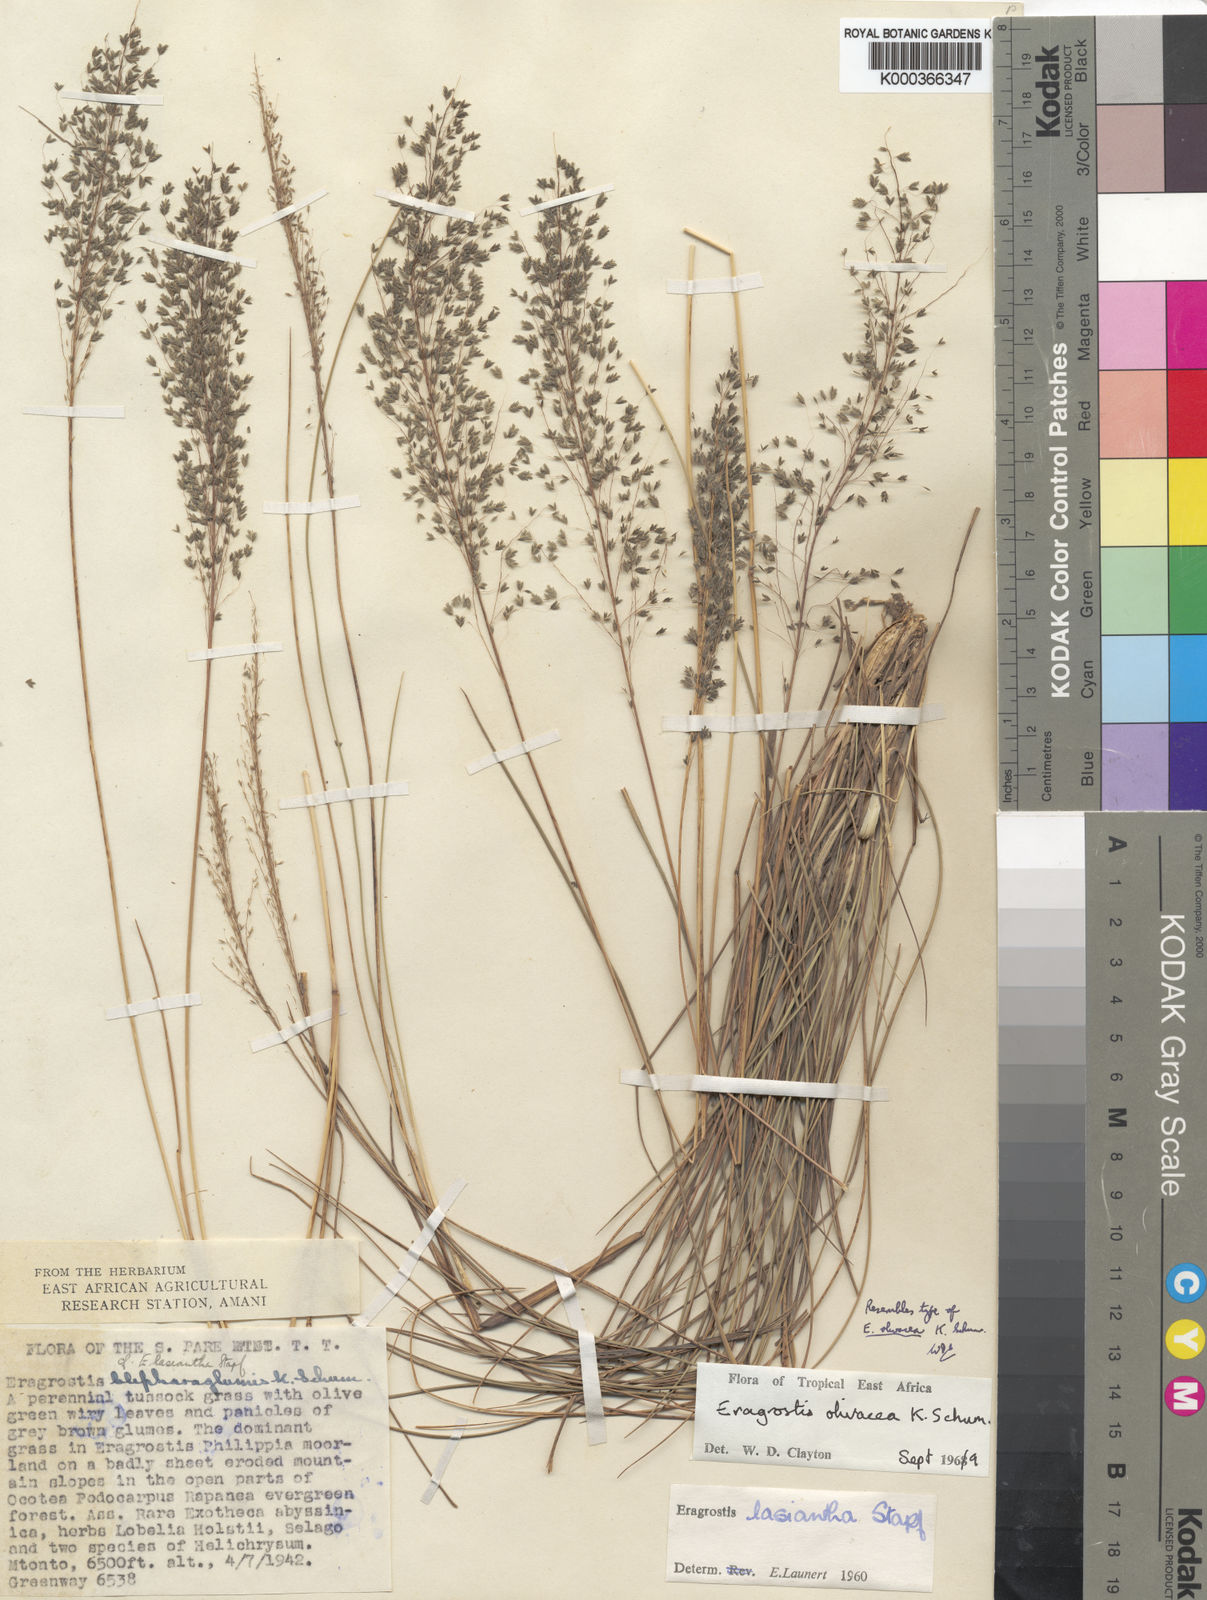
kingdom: Plantae
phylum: Tracheophyta
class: Liliopsida
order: Poales
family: Poaceae
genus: Eragrostis
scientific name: Eragrostis olivacea
